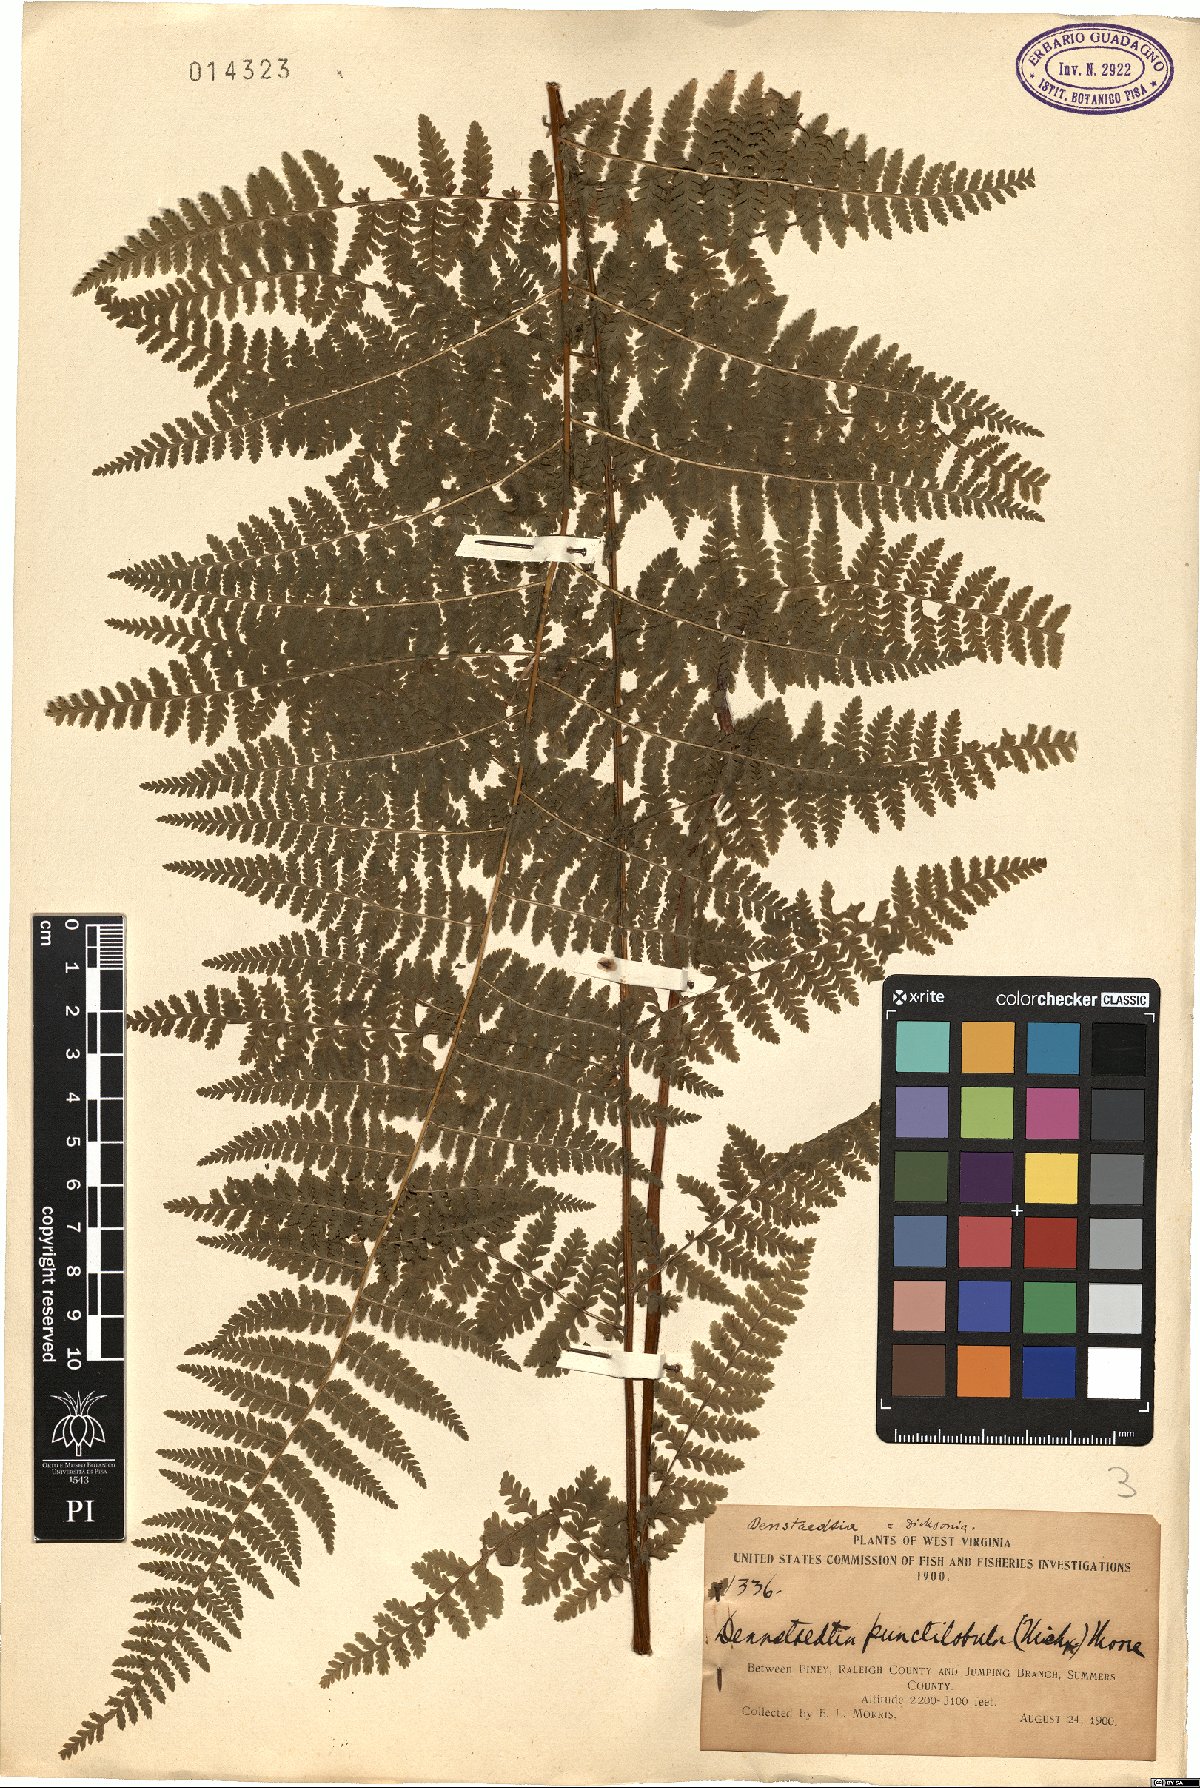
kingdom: Plantae
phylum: Tracheophyta
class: Polypodiopsida
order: Polypodiales
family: Dennstaedtiaceae
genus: Sitobolium
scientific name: Sitobolium punctilobum
